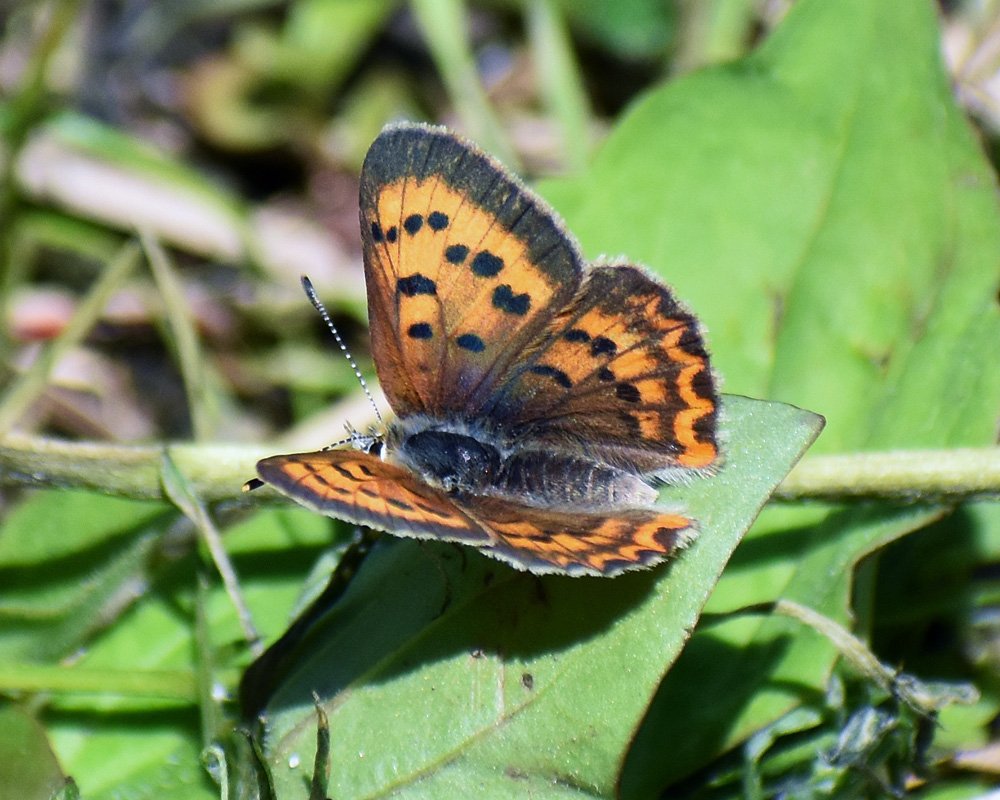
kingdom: Animalia
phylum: Arthropoda
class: Insecta
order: Lepidoptera
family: Sesiidae
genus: Sesia
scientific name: Sesia Lycaena helloides
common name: Purplish Copper
